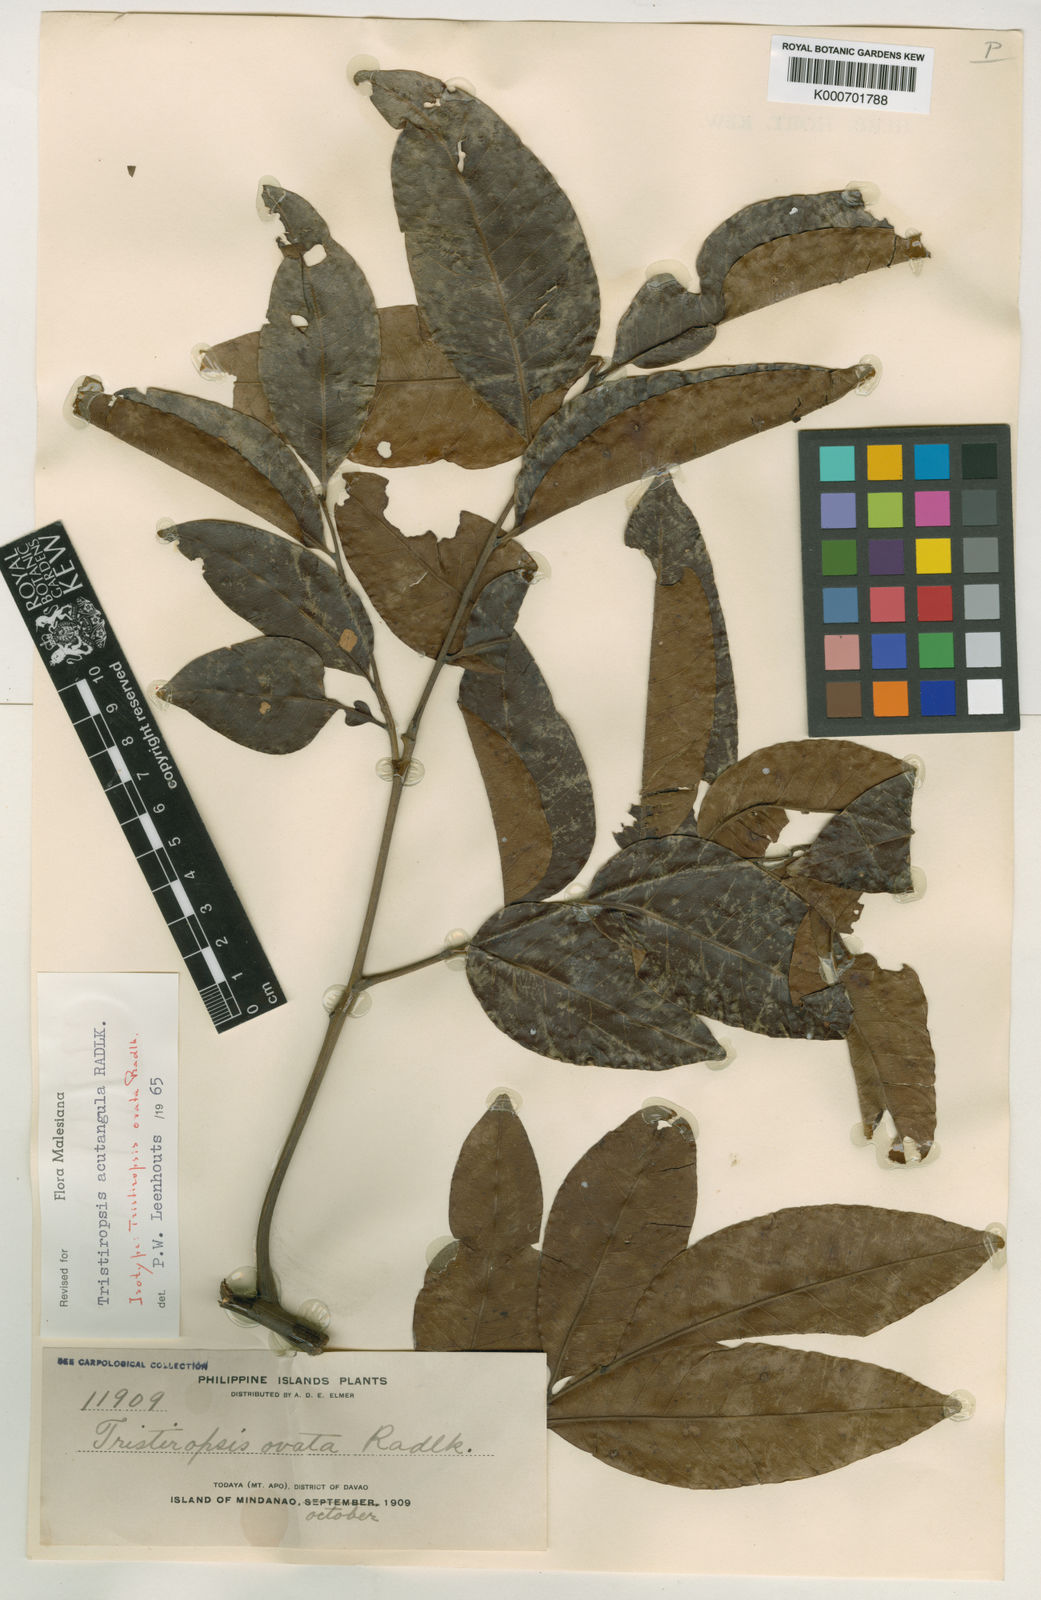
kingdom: Plantae
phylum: Tracheophyta
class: Magnoliopsida
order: Sapindales
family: Sapindaceae
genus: Tristiropsis
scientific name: Tristiropsis acutangula
